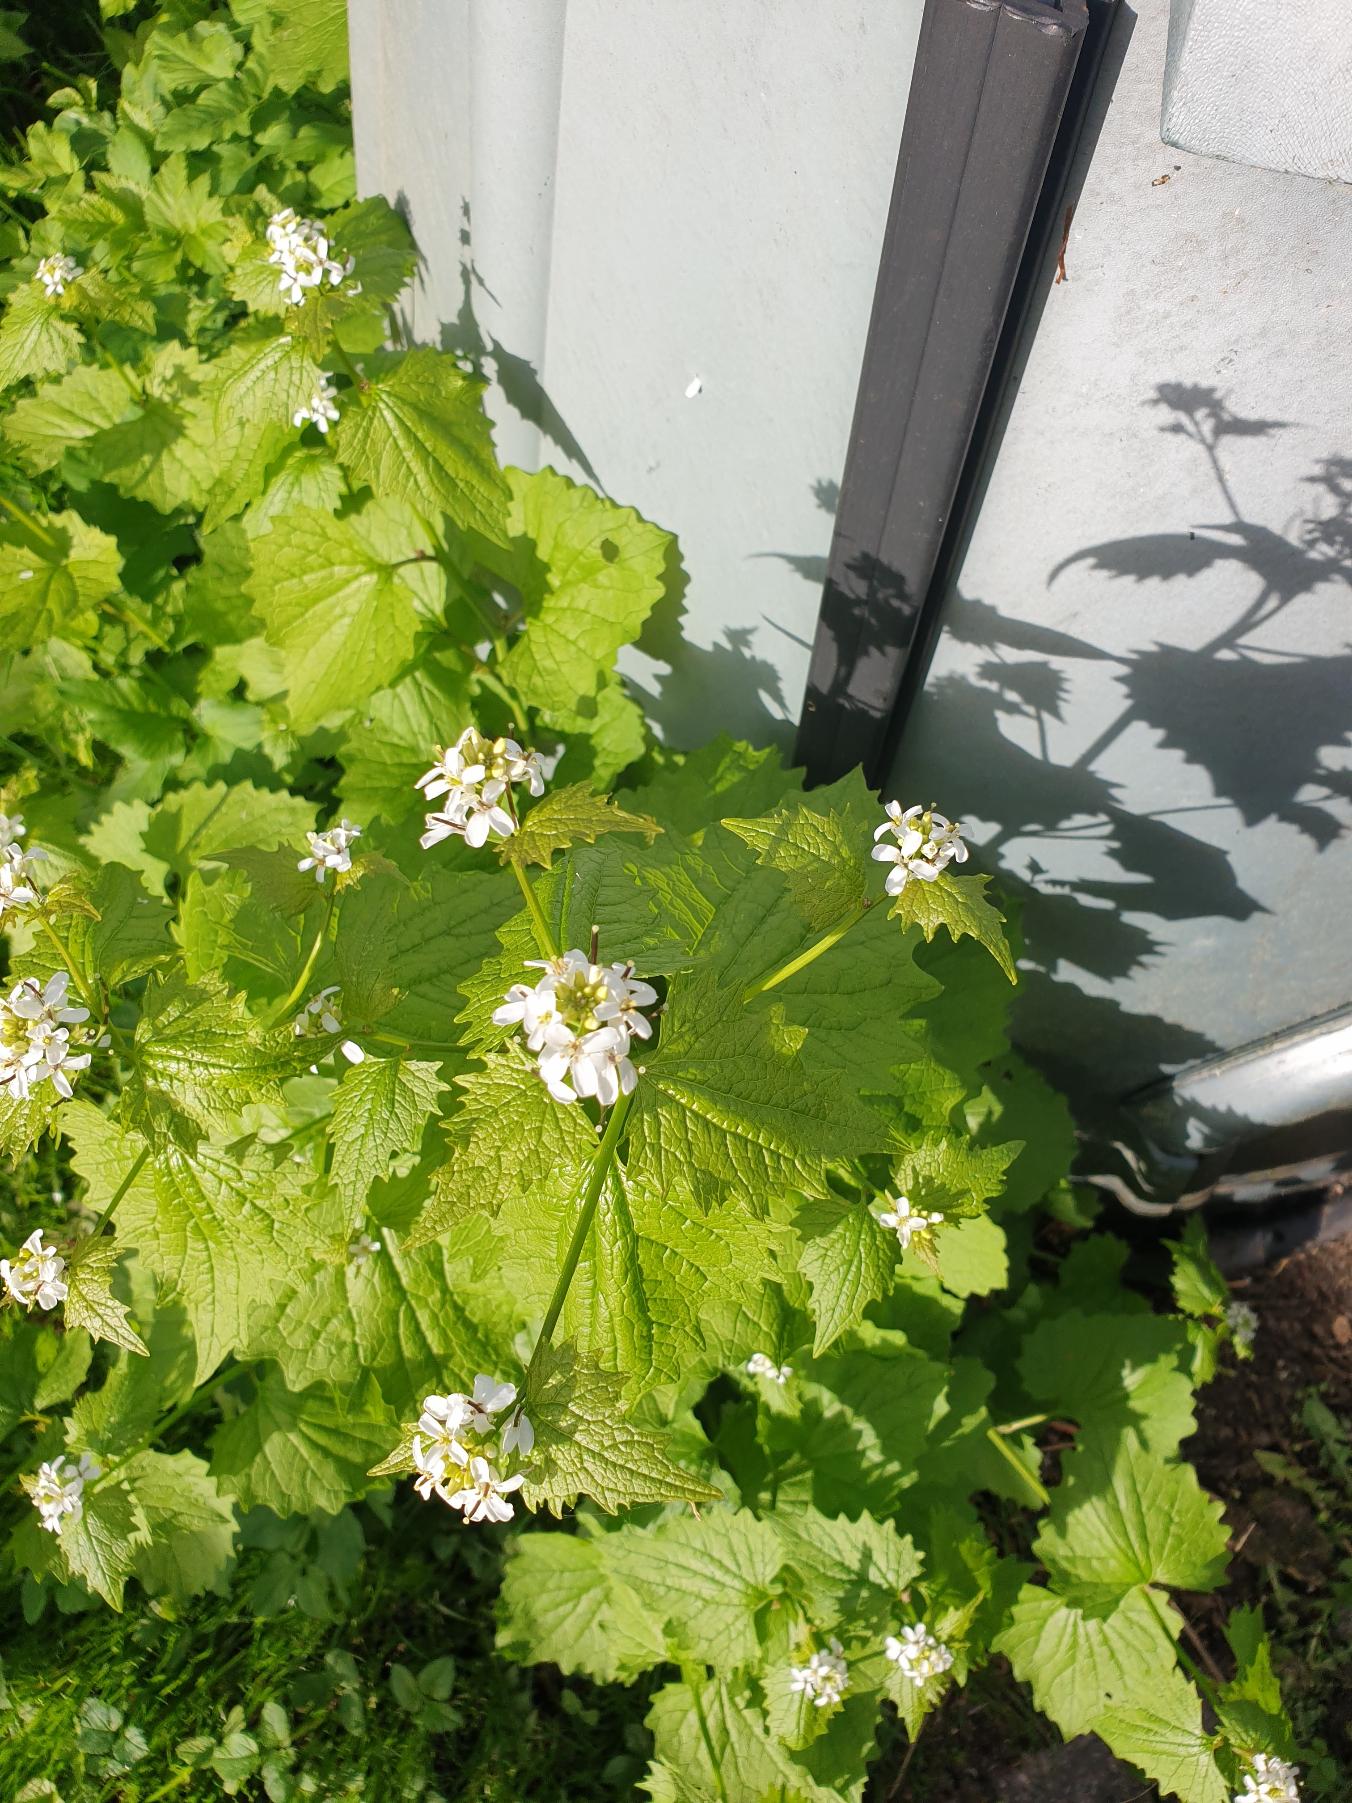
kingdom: Plantae
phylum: Tracheophyta
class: Magnoliopsida
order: Brassicales
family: Brassicaceae
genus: Alliaria
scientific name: Alliaria petiolata
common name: Løgkarse
